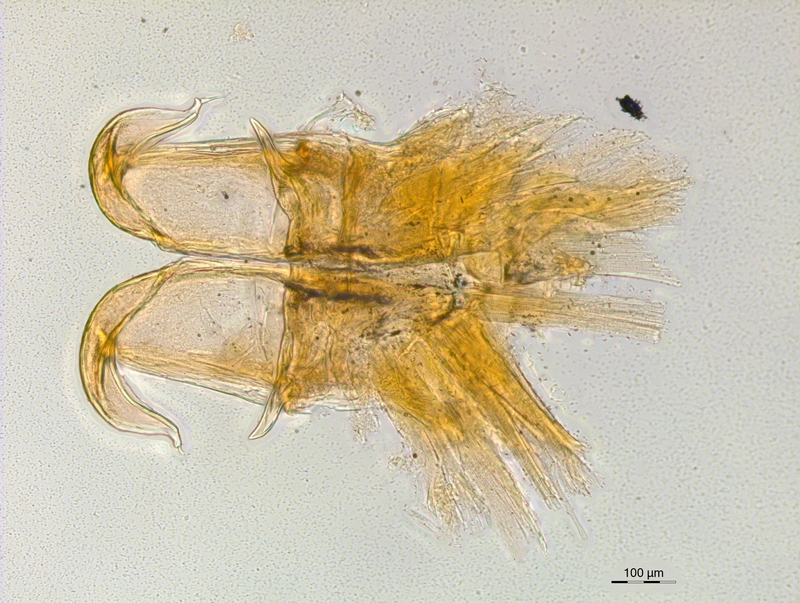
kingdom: Animalia
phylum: Arthropoda
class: Diplopoda
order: Chordeumatida
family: Craspedosomatidae
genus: Atractosoma
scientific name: Atractosoma cecconii
